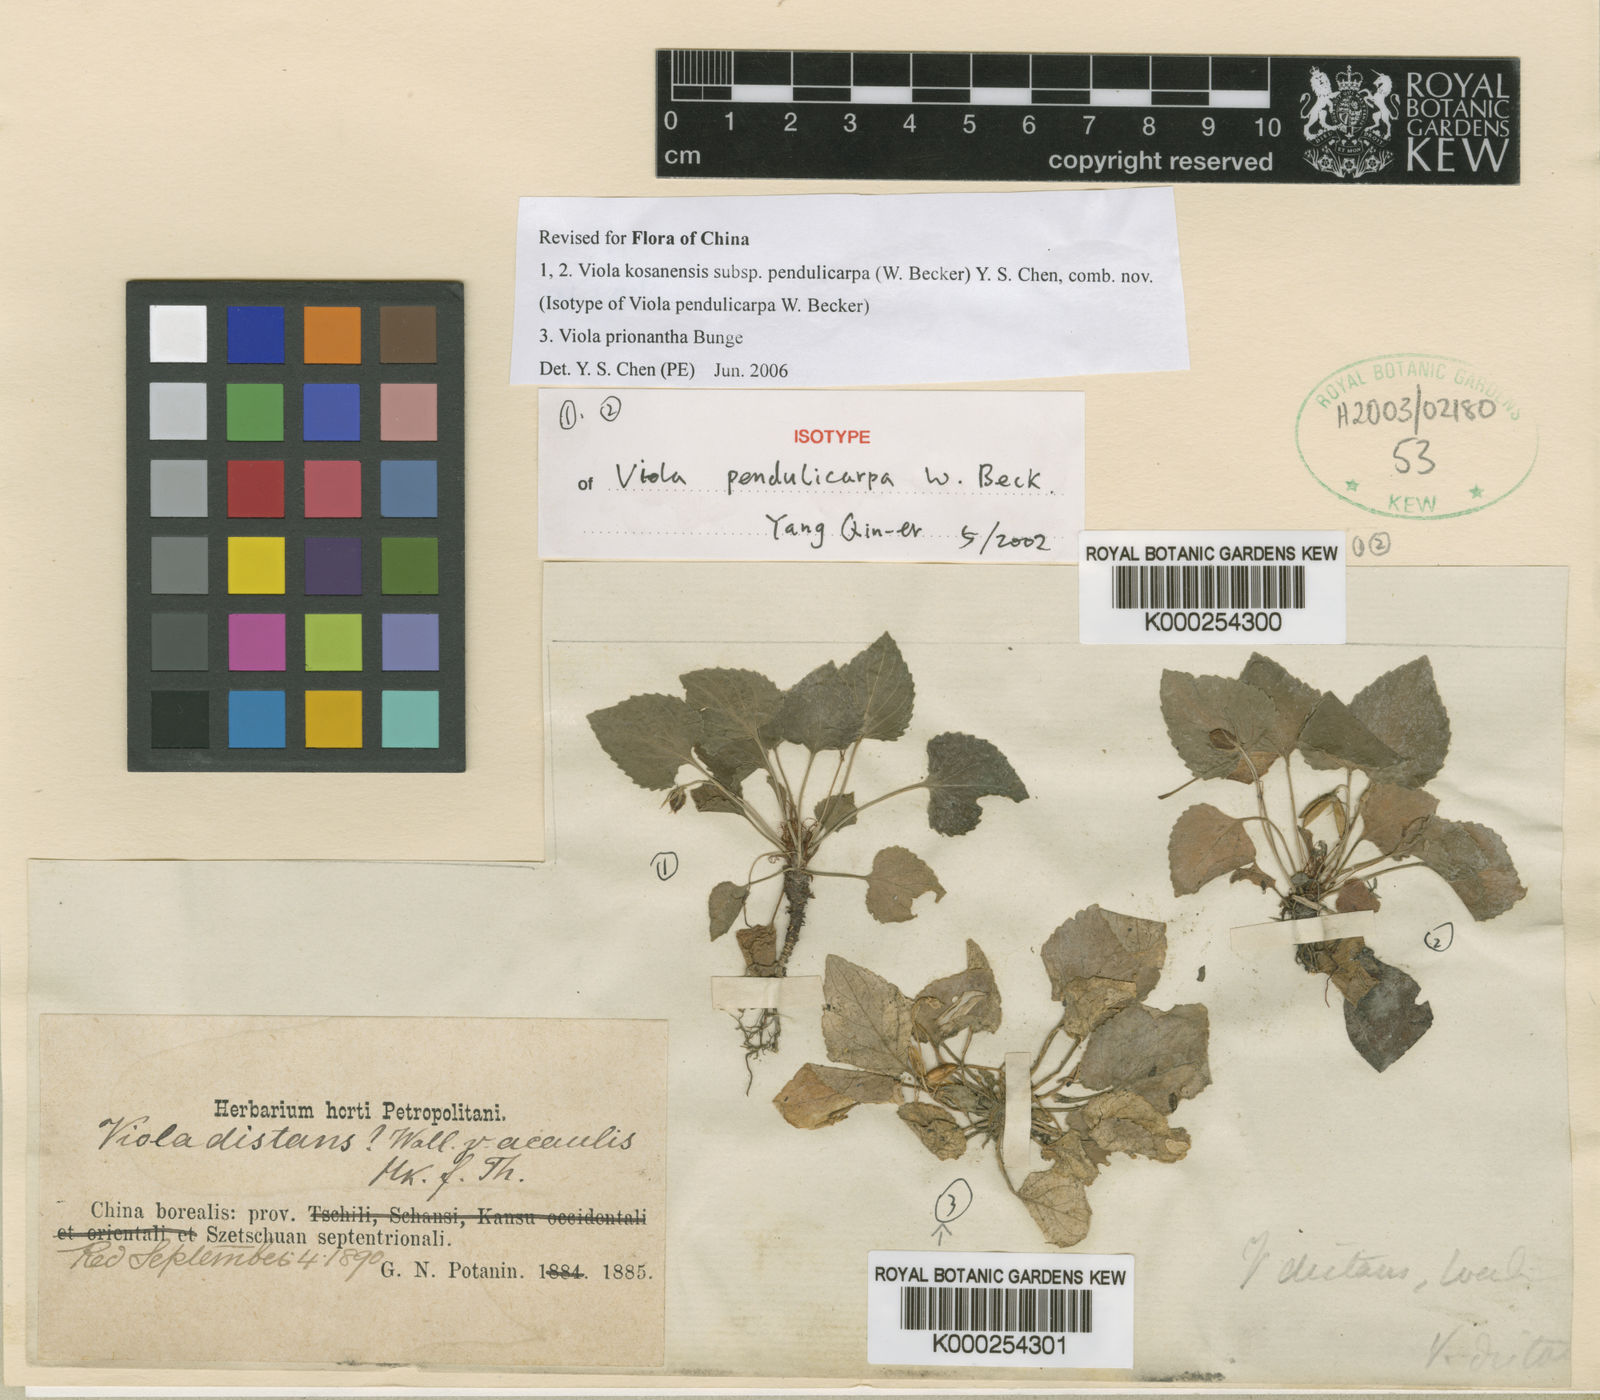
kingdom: Plantae
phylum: Tracheophyta
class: Magnoliopsida
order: Malpighiales
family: Violaceae
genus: Viola
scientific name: Viola pendulicarpa
